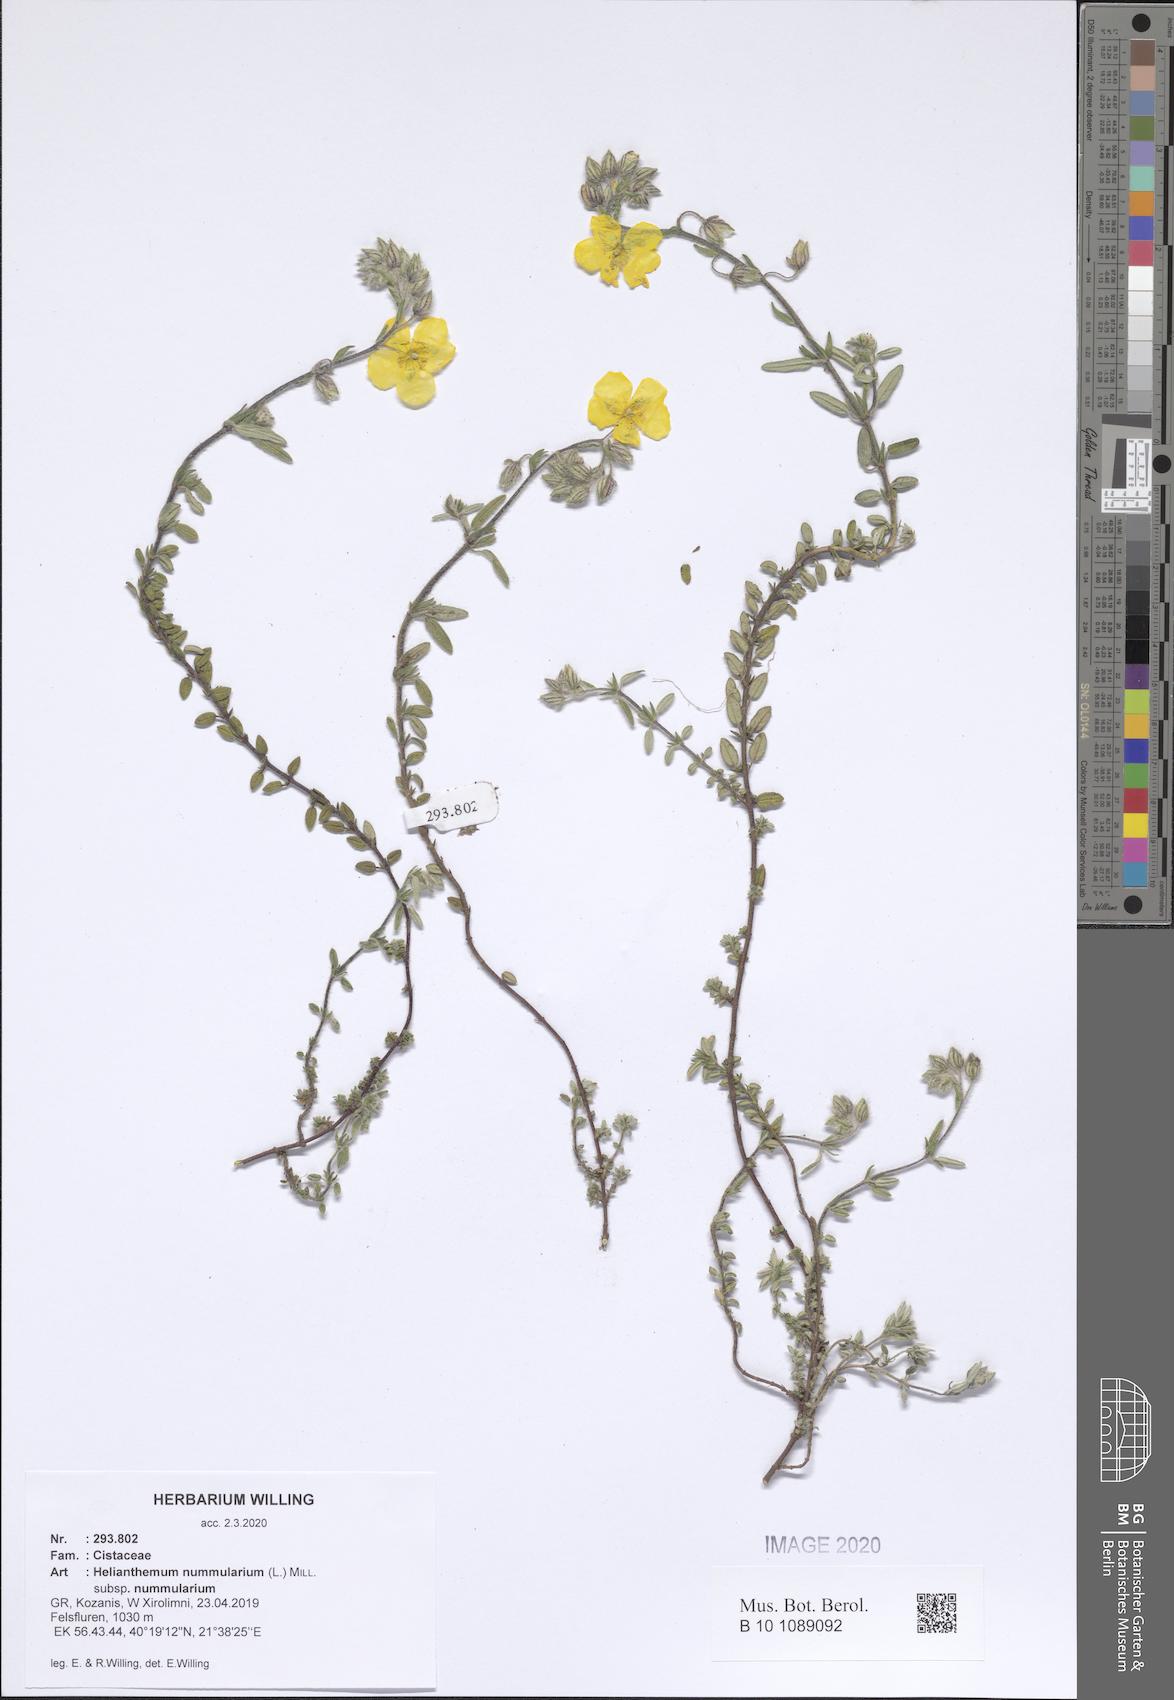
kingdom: Plantae
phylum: Tracheophyta
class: Magnoliopsida
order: Malvales
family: Cistaceae
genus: Helianthemum
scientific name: Helianthemum nummularium
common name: Common rock-rose
